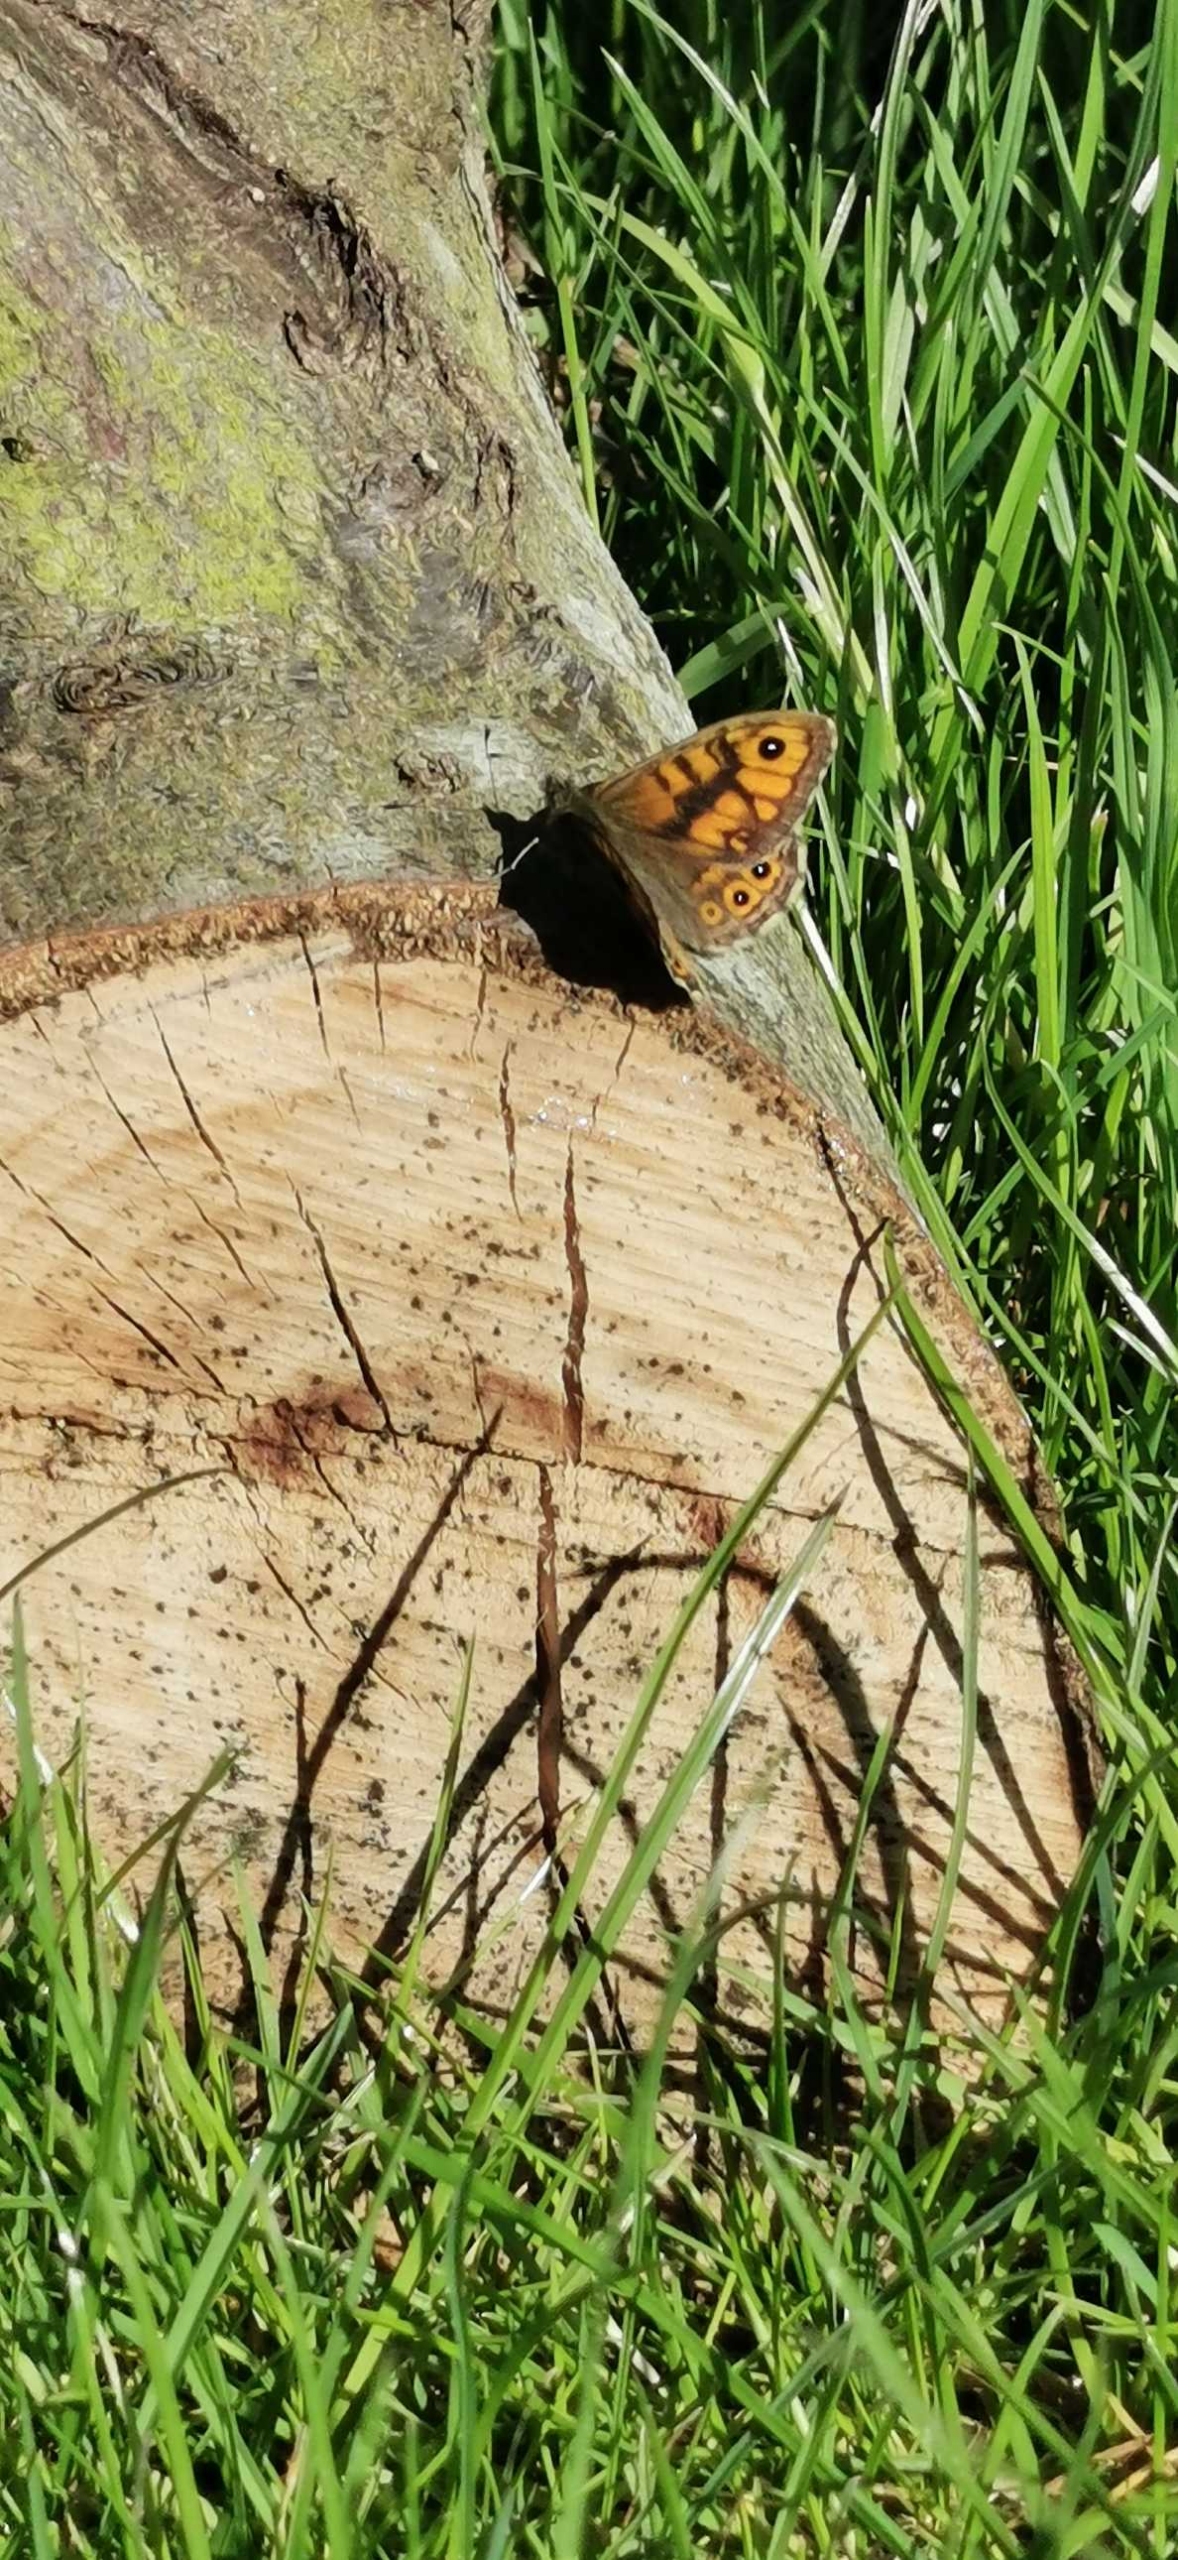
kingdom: Animalia
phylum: Arthropoda
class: Insecta
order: Lepidoptera
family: Nymphalidae
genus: Pararge
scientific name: Pararge Lasiommata megera
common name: Vejrandøje
